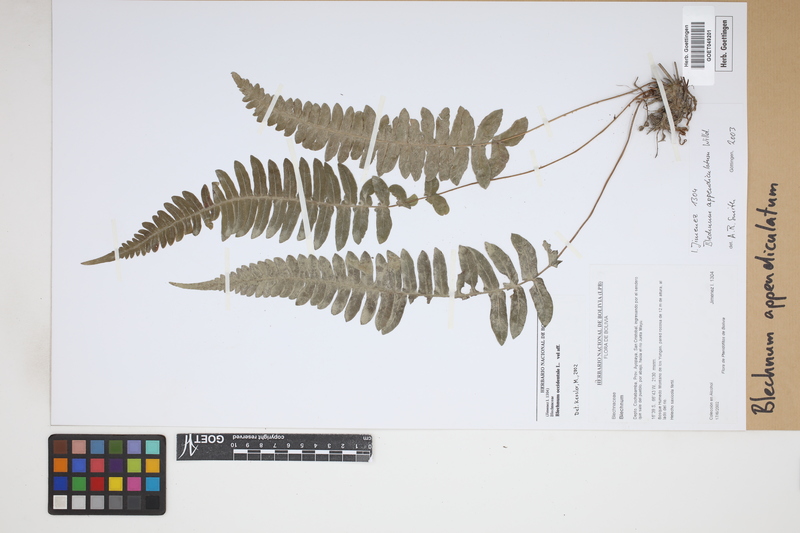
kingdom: Plantae
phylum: Tracheophyta
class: Polypodiopsida
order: Polypodiales
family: Blechnaceae
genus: Blechnum
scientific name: Blechnum appendiculatum
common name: Palm fern
